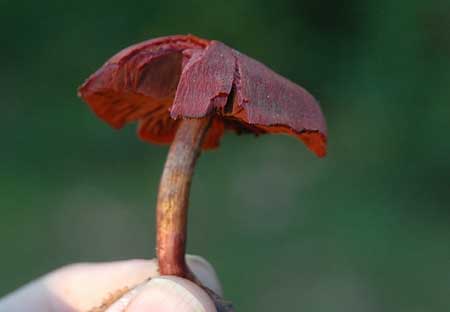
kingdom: Fungi
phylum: Basidiomycota
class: Agaricomycetes
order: Agaricales
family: Cortinariaceae
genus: Cortinarius
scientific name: Cortinarius sanguineus
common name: blodrød slørhat
